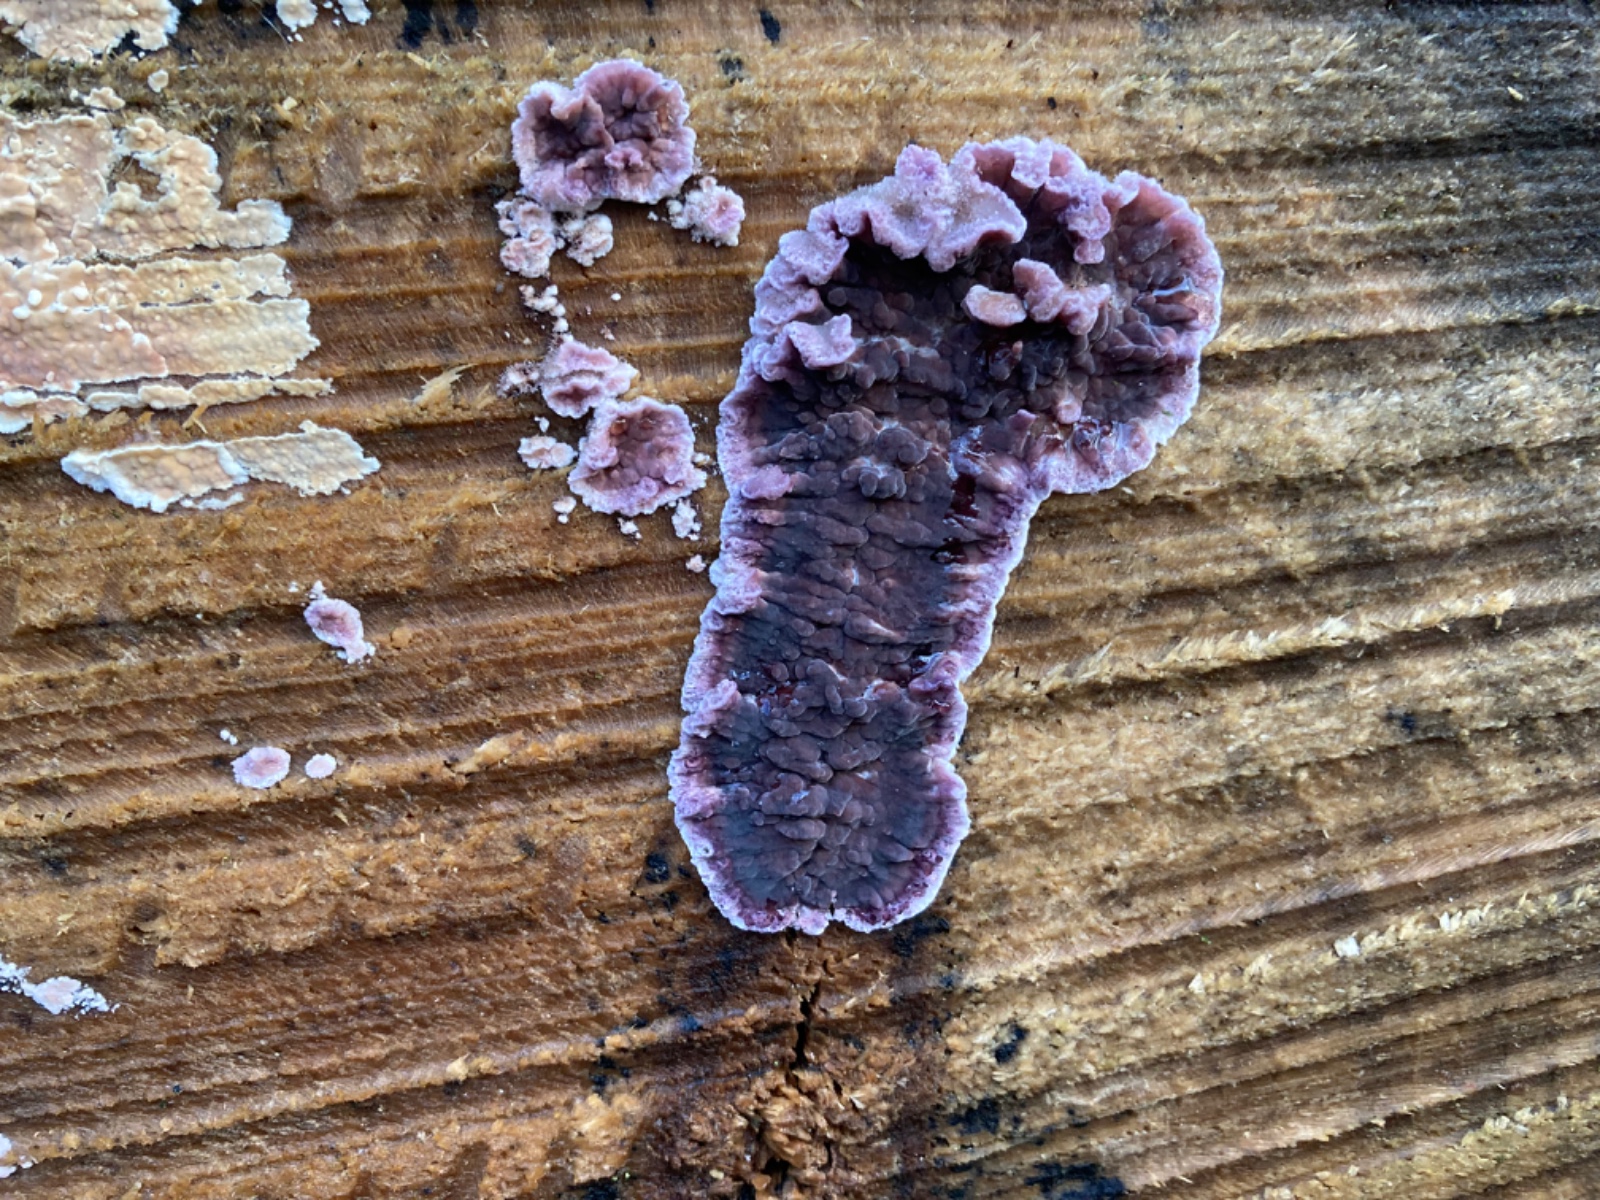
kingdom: Fungi
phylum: Basidiomycota
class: Agaricomycetes
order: Agaricales
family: Cyphellaceae
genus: Chondrostereum
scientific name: Chondrostereum purpureum
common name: purpurlædersvamp
